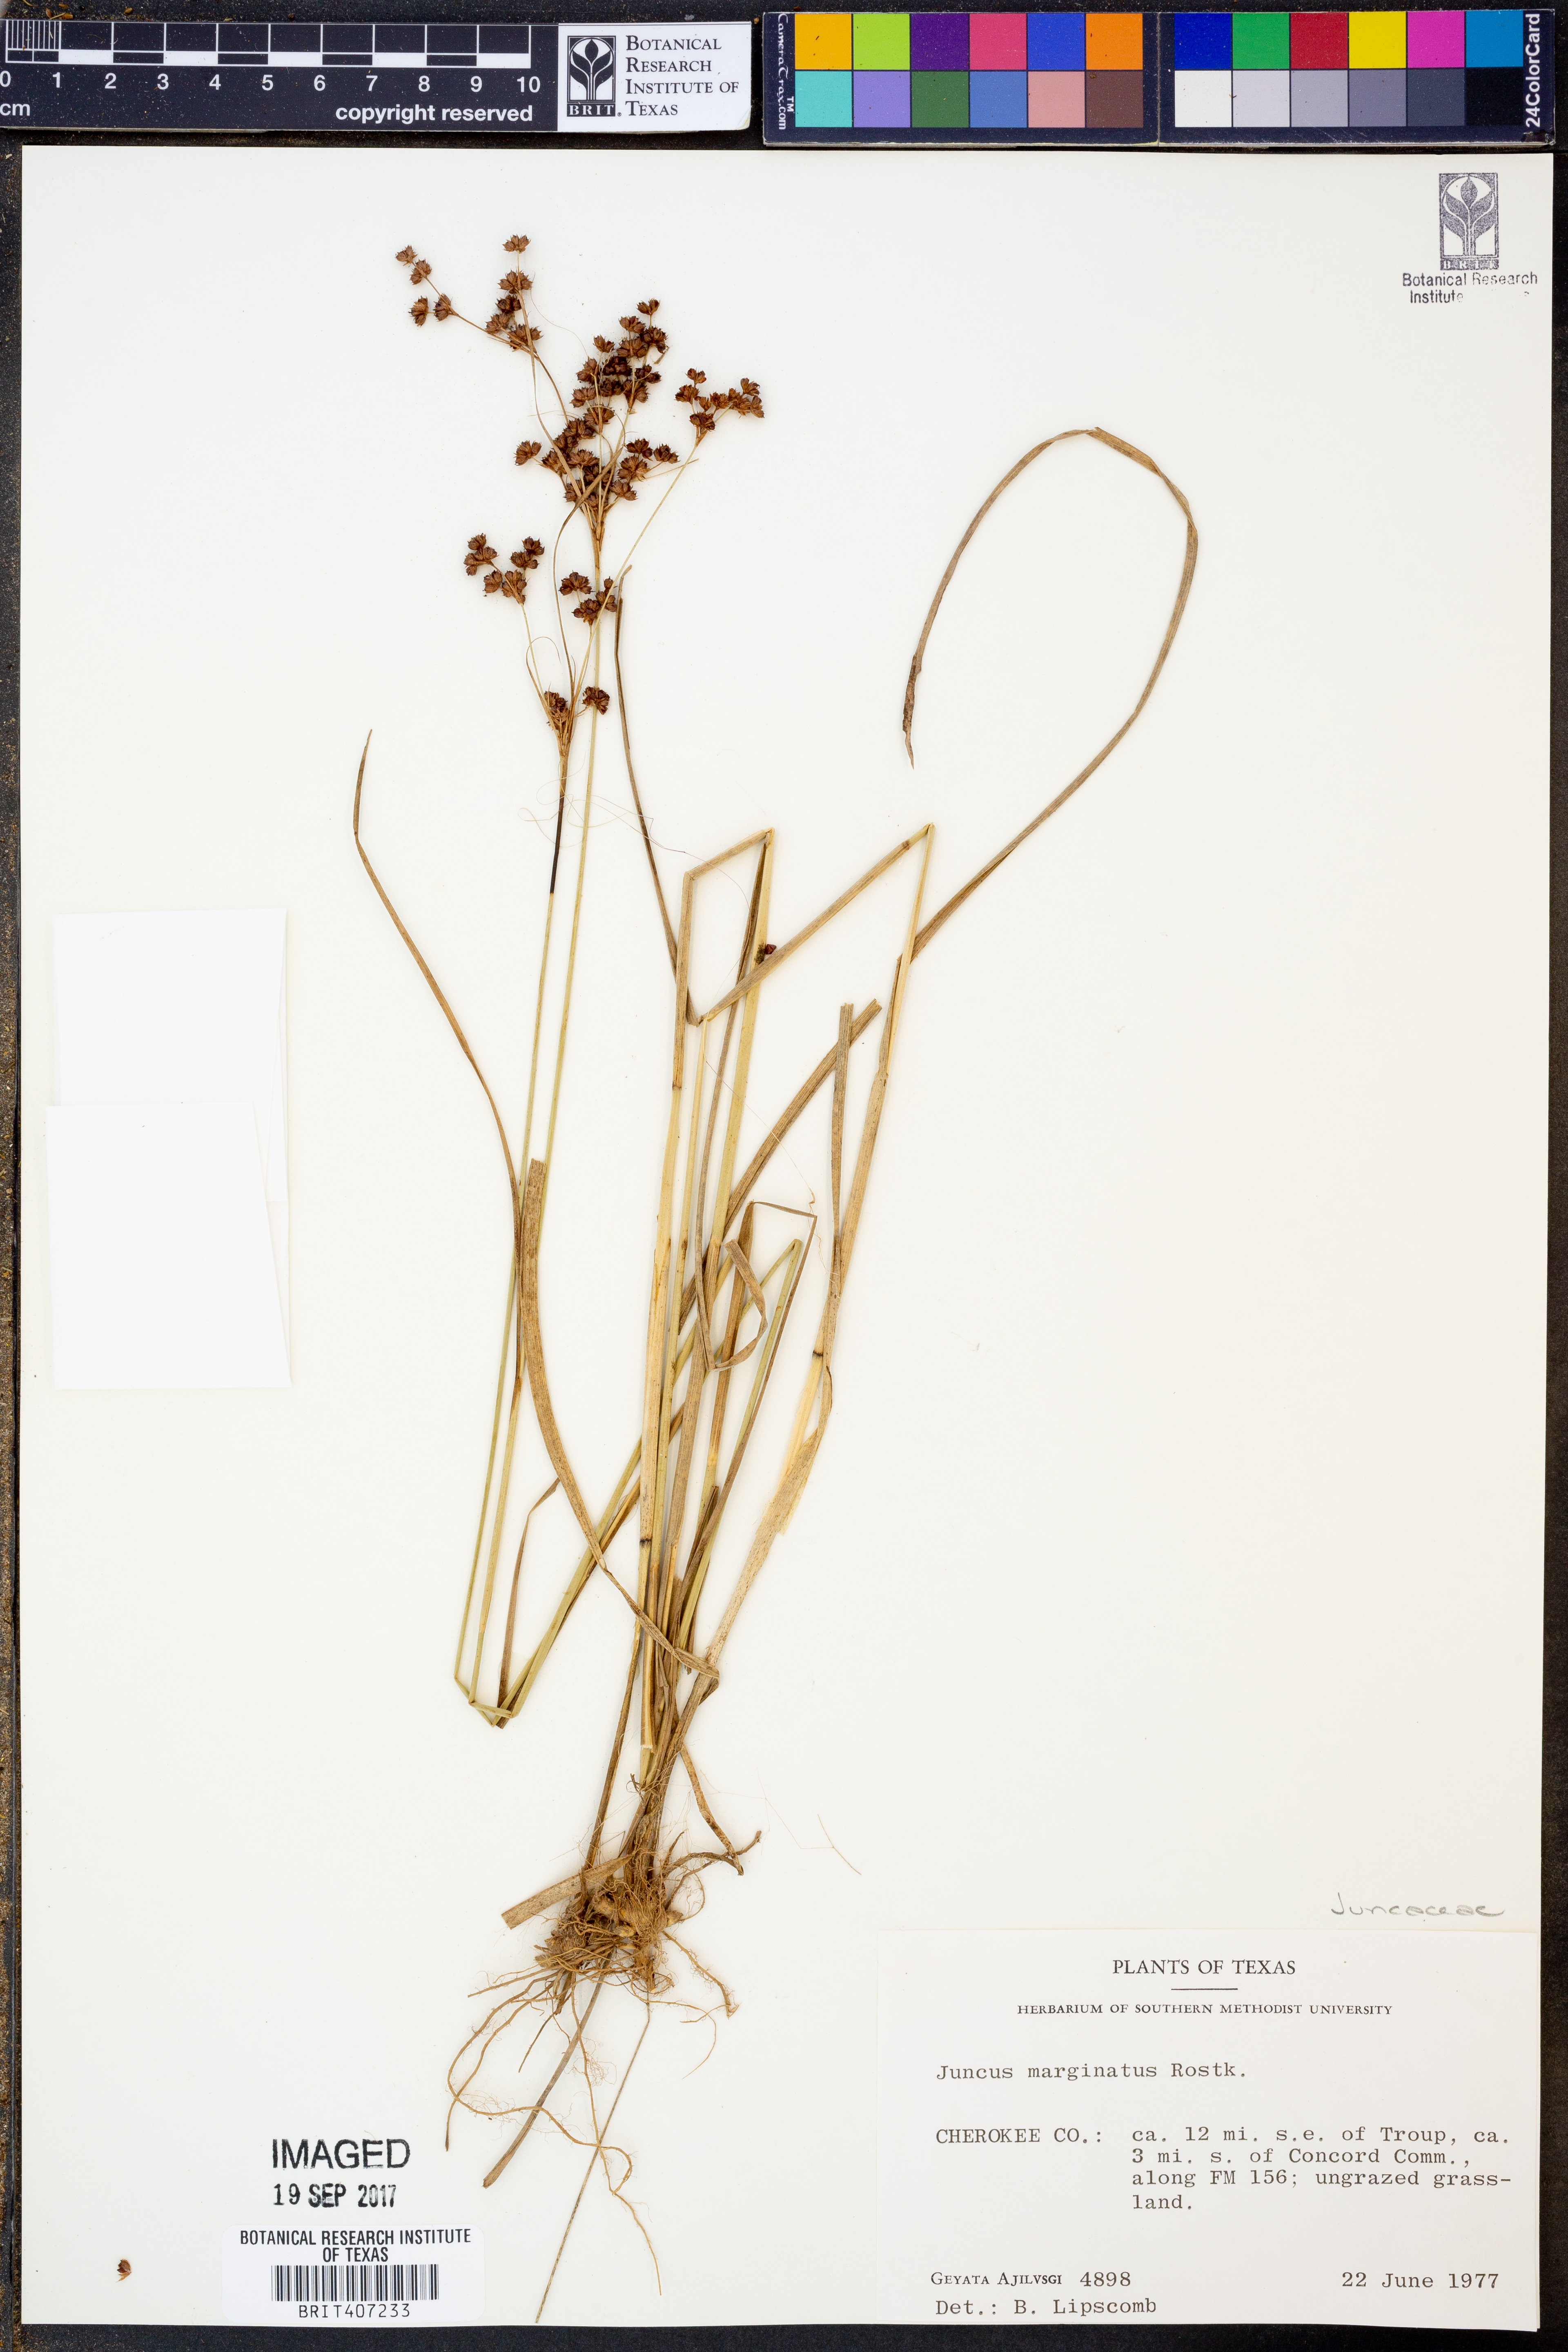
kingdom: Plantae
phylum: Tracheophyta
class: Liliopsida
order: Poales
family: Juncaceae
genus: Juncus
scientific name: Juncus marginatus
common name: Grass-leaf rush
